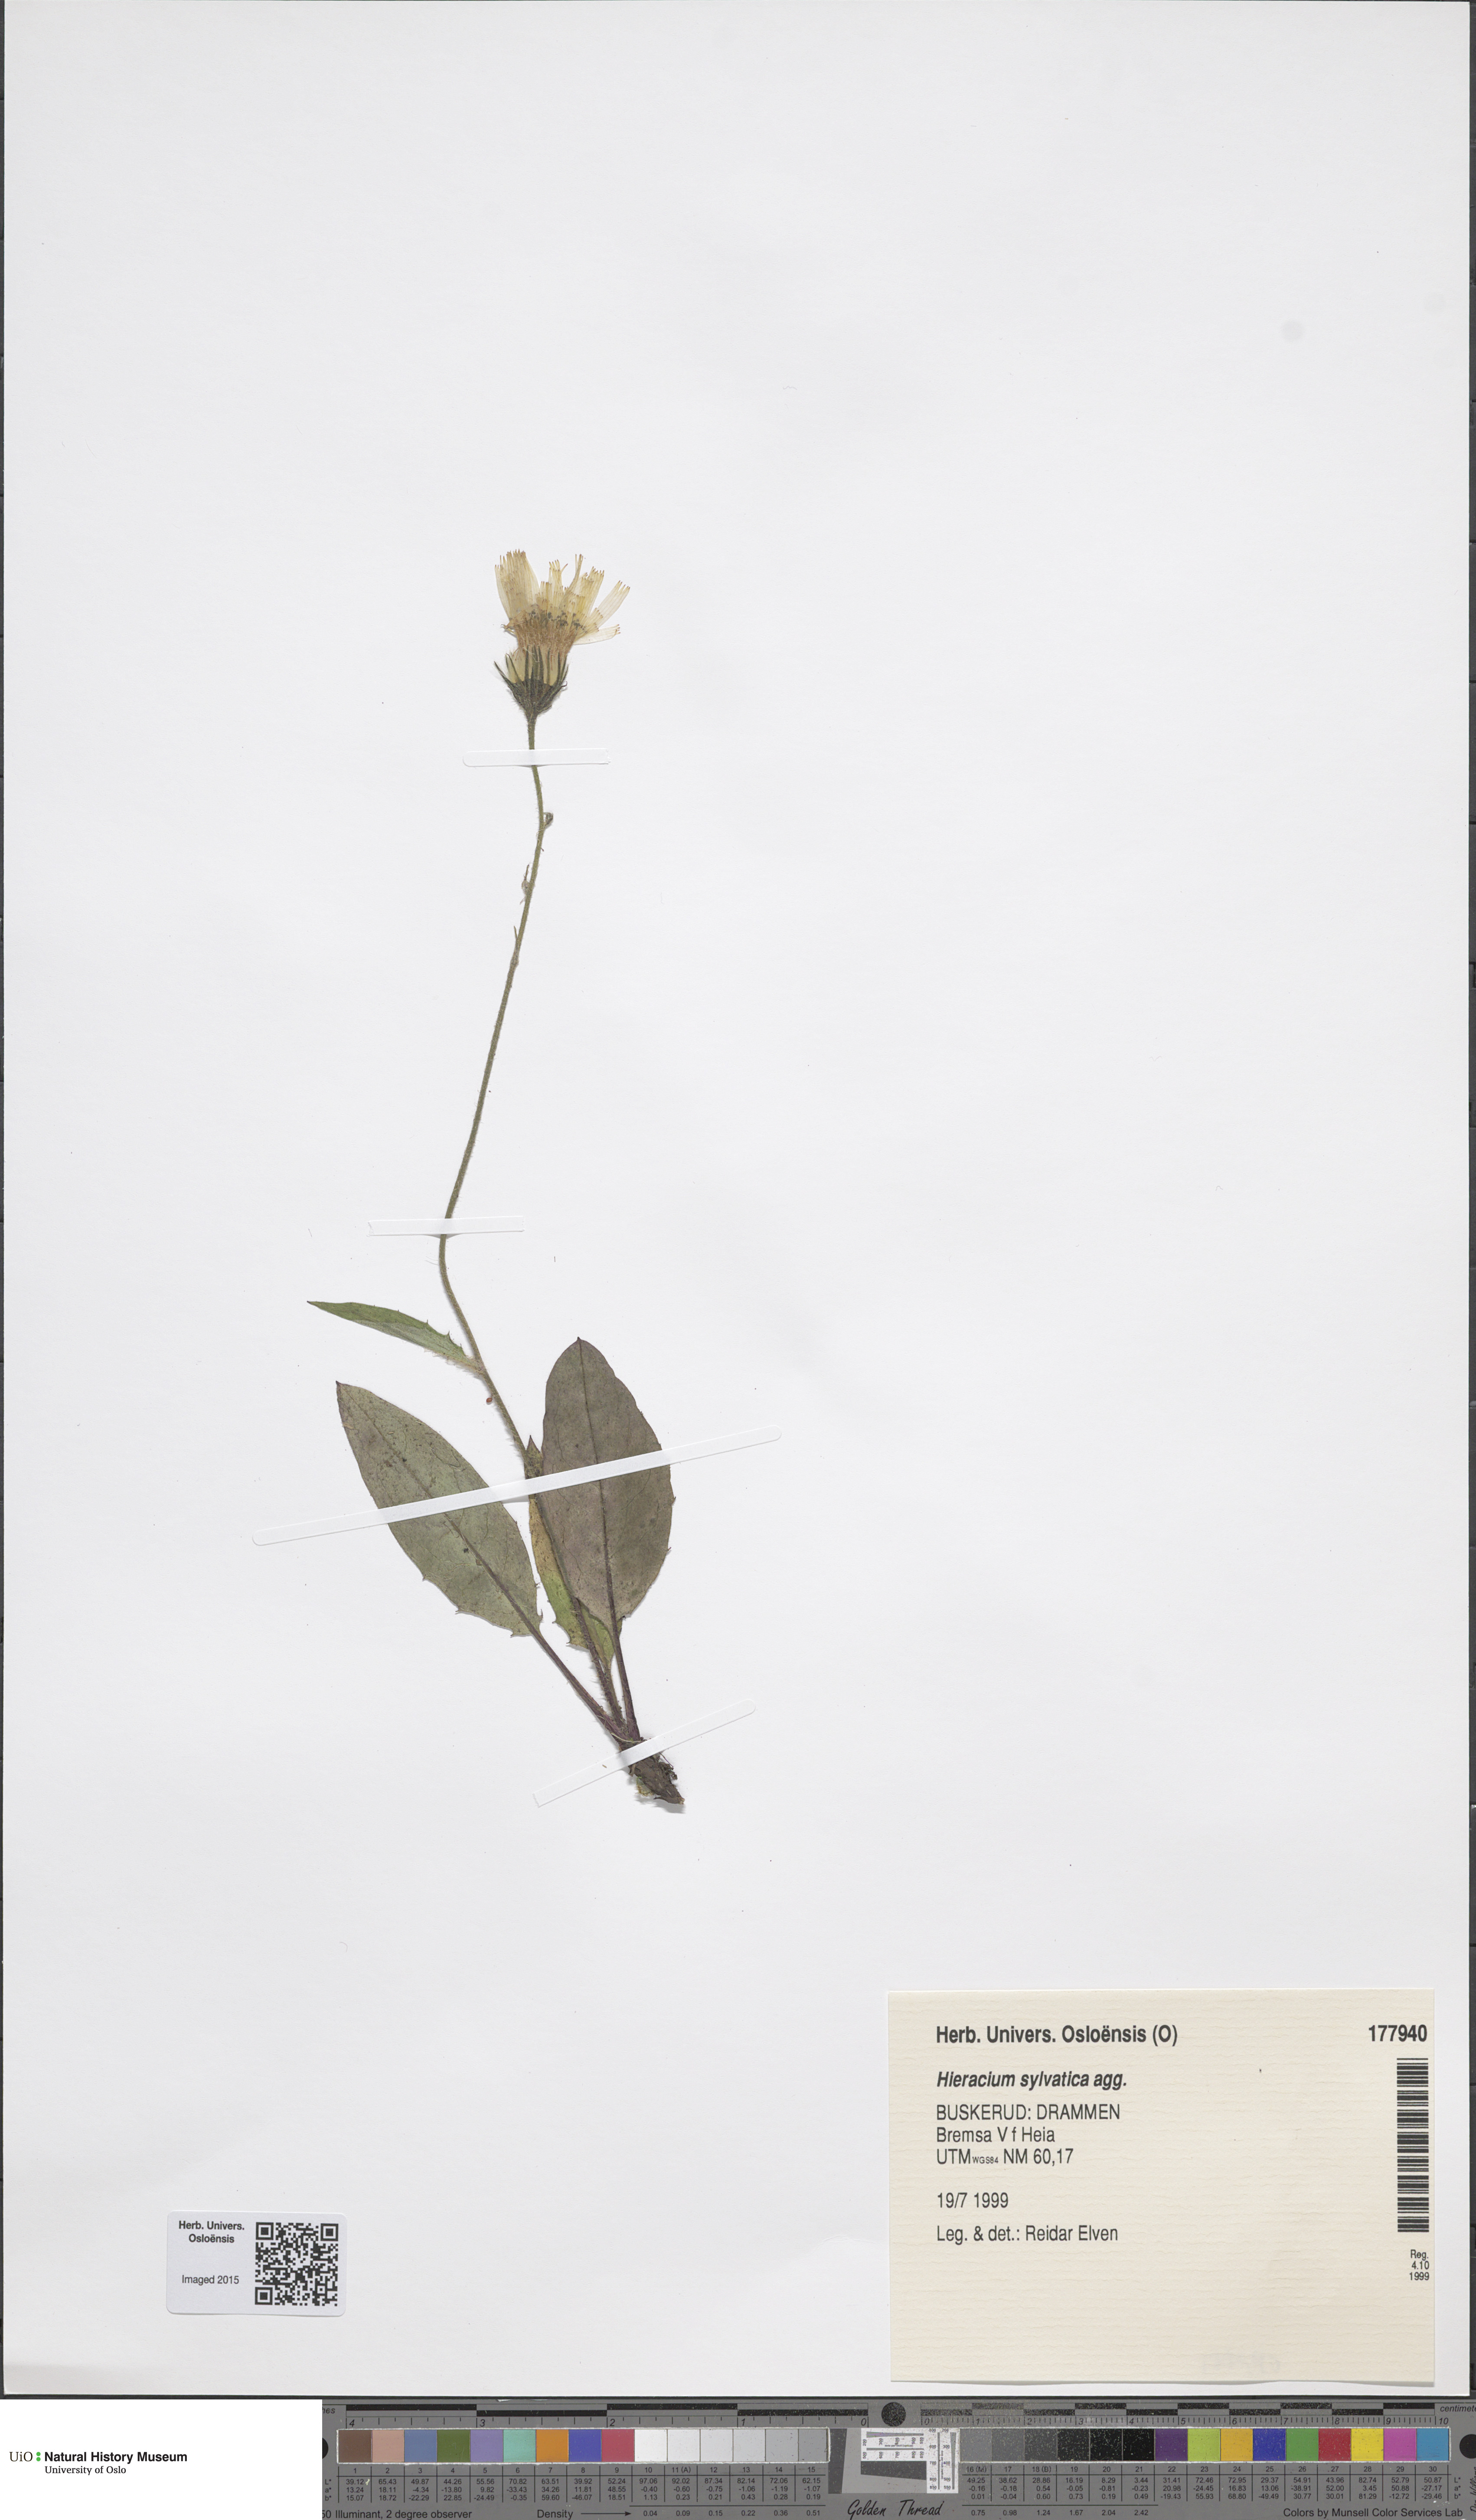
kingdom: Plantae
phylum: Tracheophyta
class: Magnoliopsida
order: Asterales
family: Asteraceae
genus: Hieracium
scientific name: Hieracium
